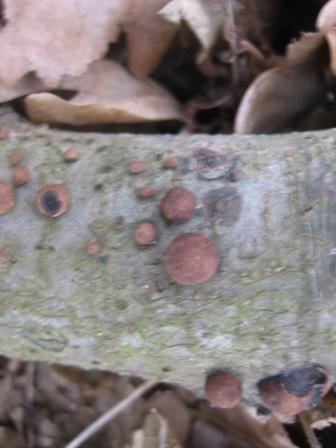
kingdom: Fungi
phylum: Ascomycota
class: Sordariomycetes
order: Xylariales
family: Hypoxylaceae
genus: Hypoxylon
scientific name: Hypoxylon fragiforme
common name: kuljordbær
